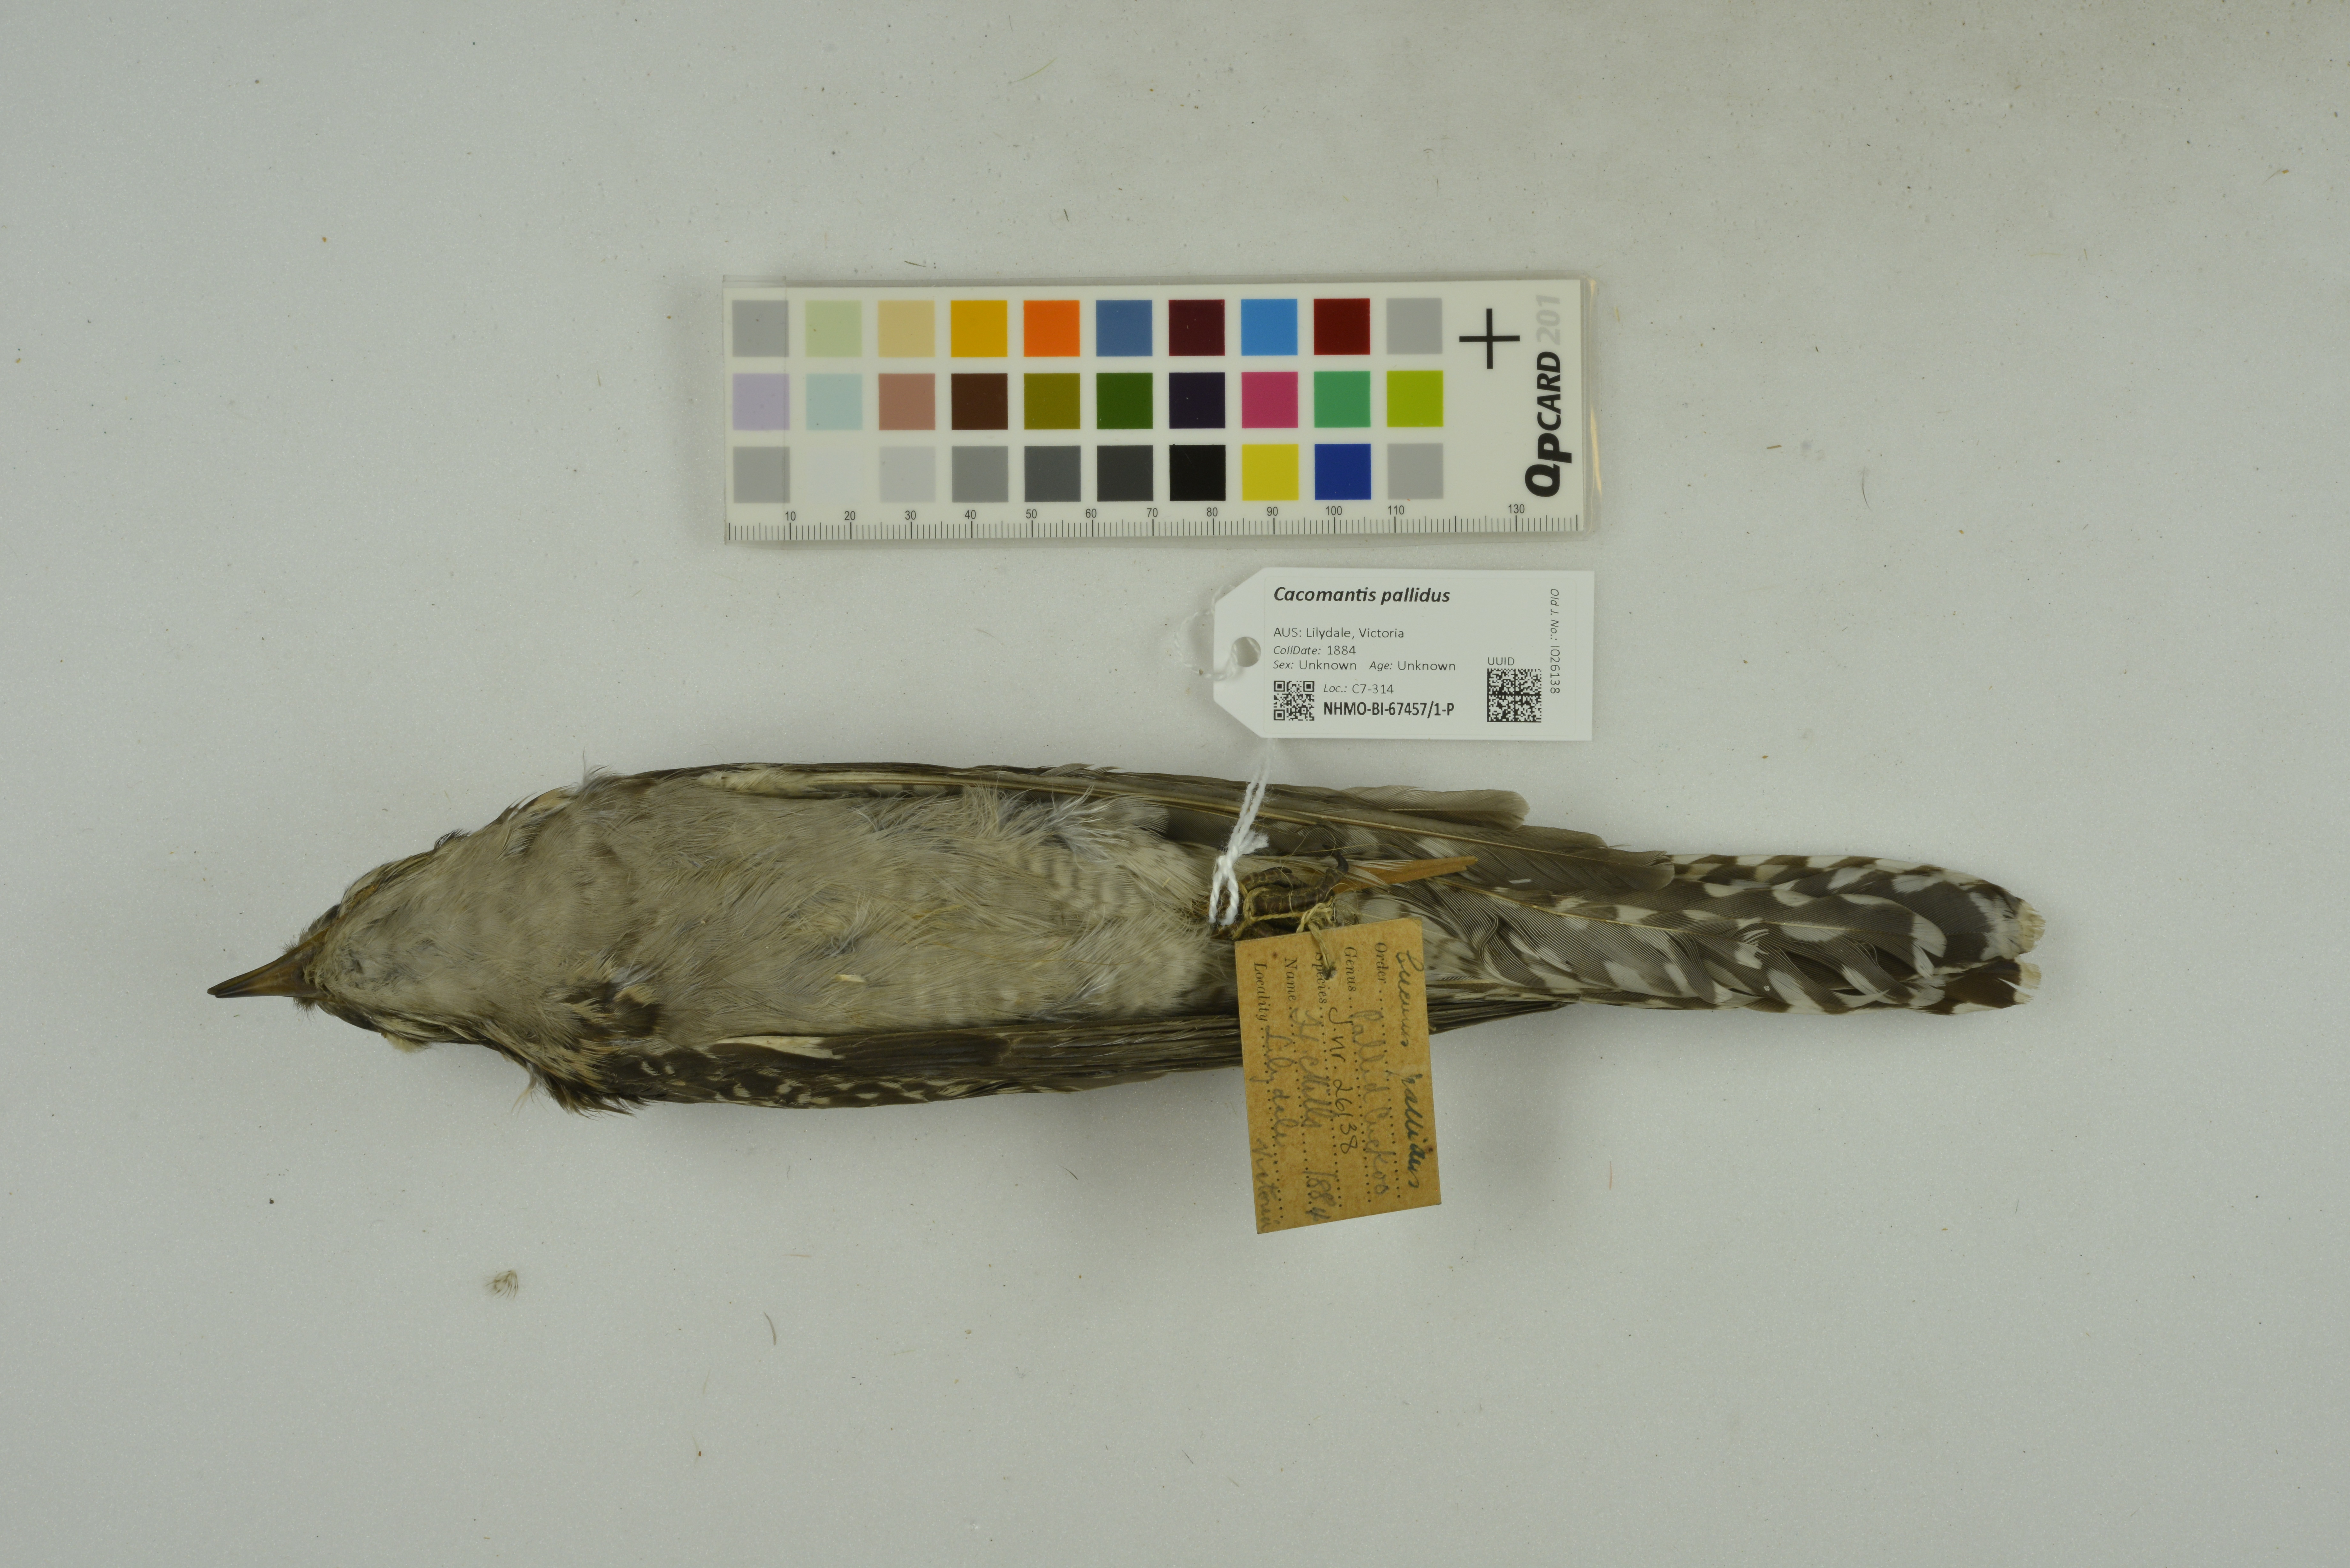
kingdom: Animalia
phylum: Chordata
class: Aves
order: Cuculiformes
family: Cuculidae
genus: Cuculus
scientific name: Cuculus pallidus
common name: Pallid cuckoo
